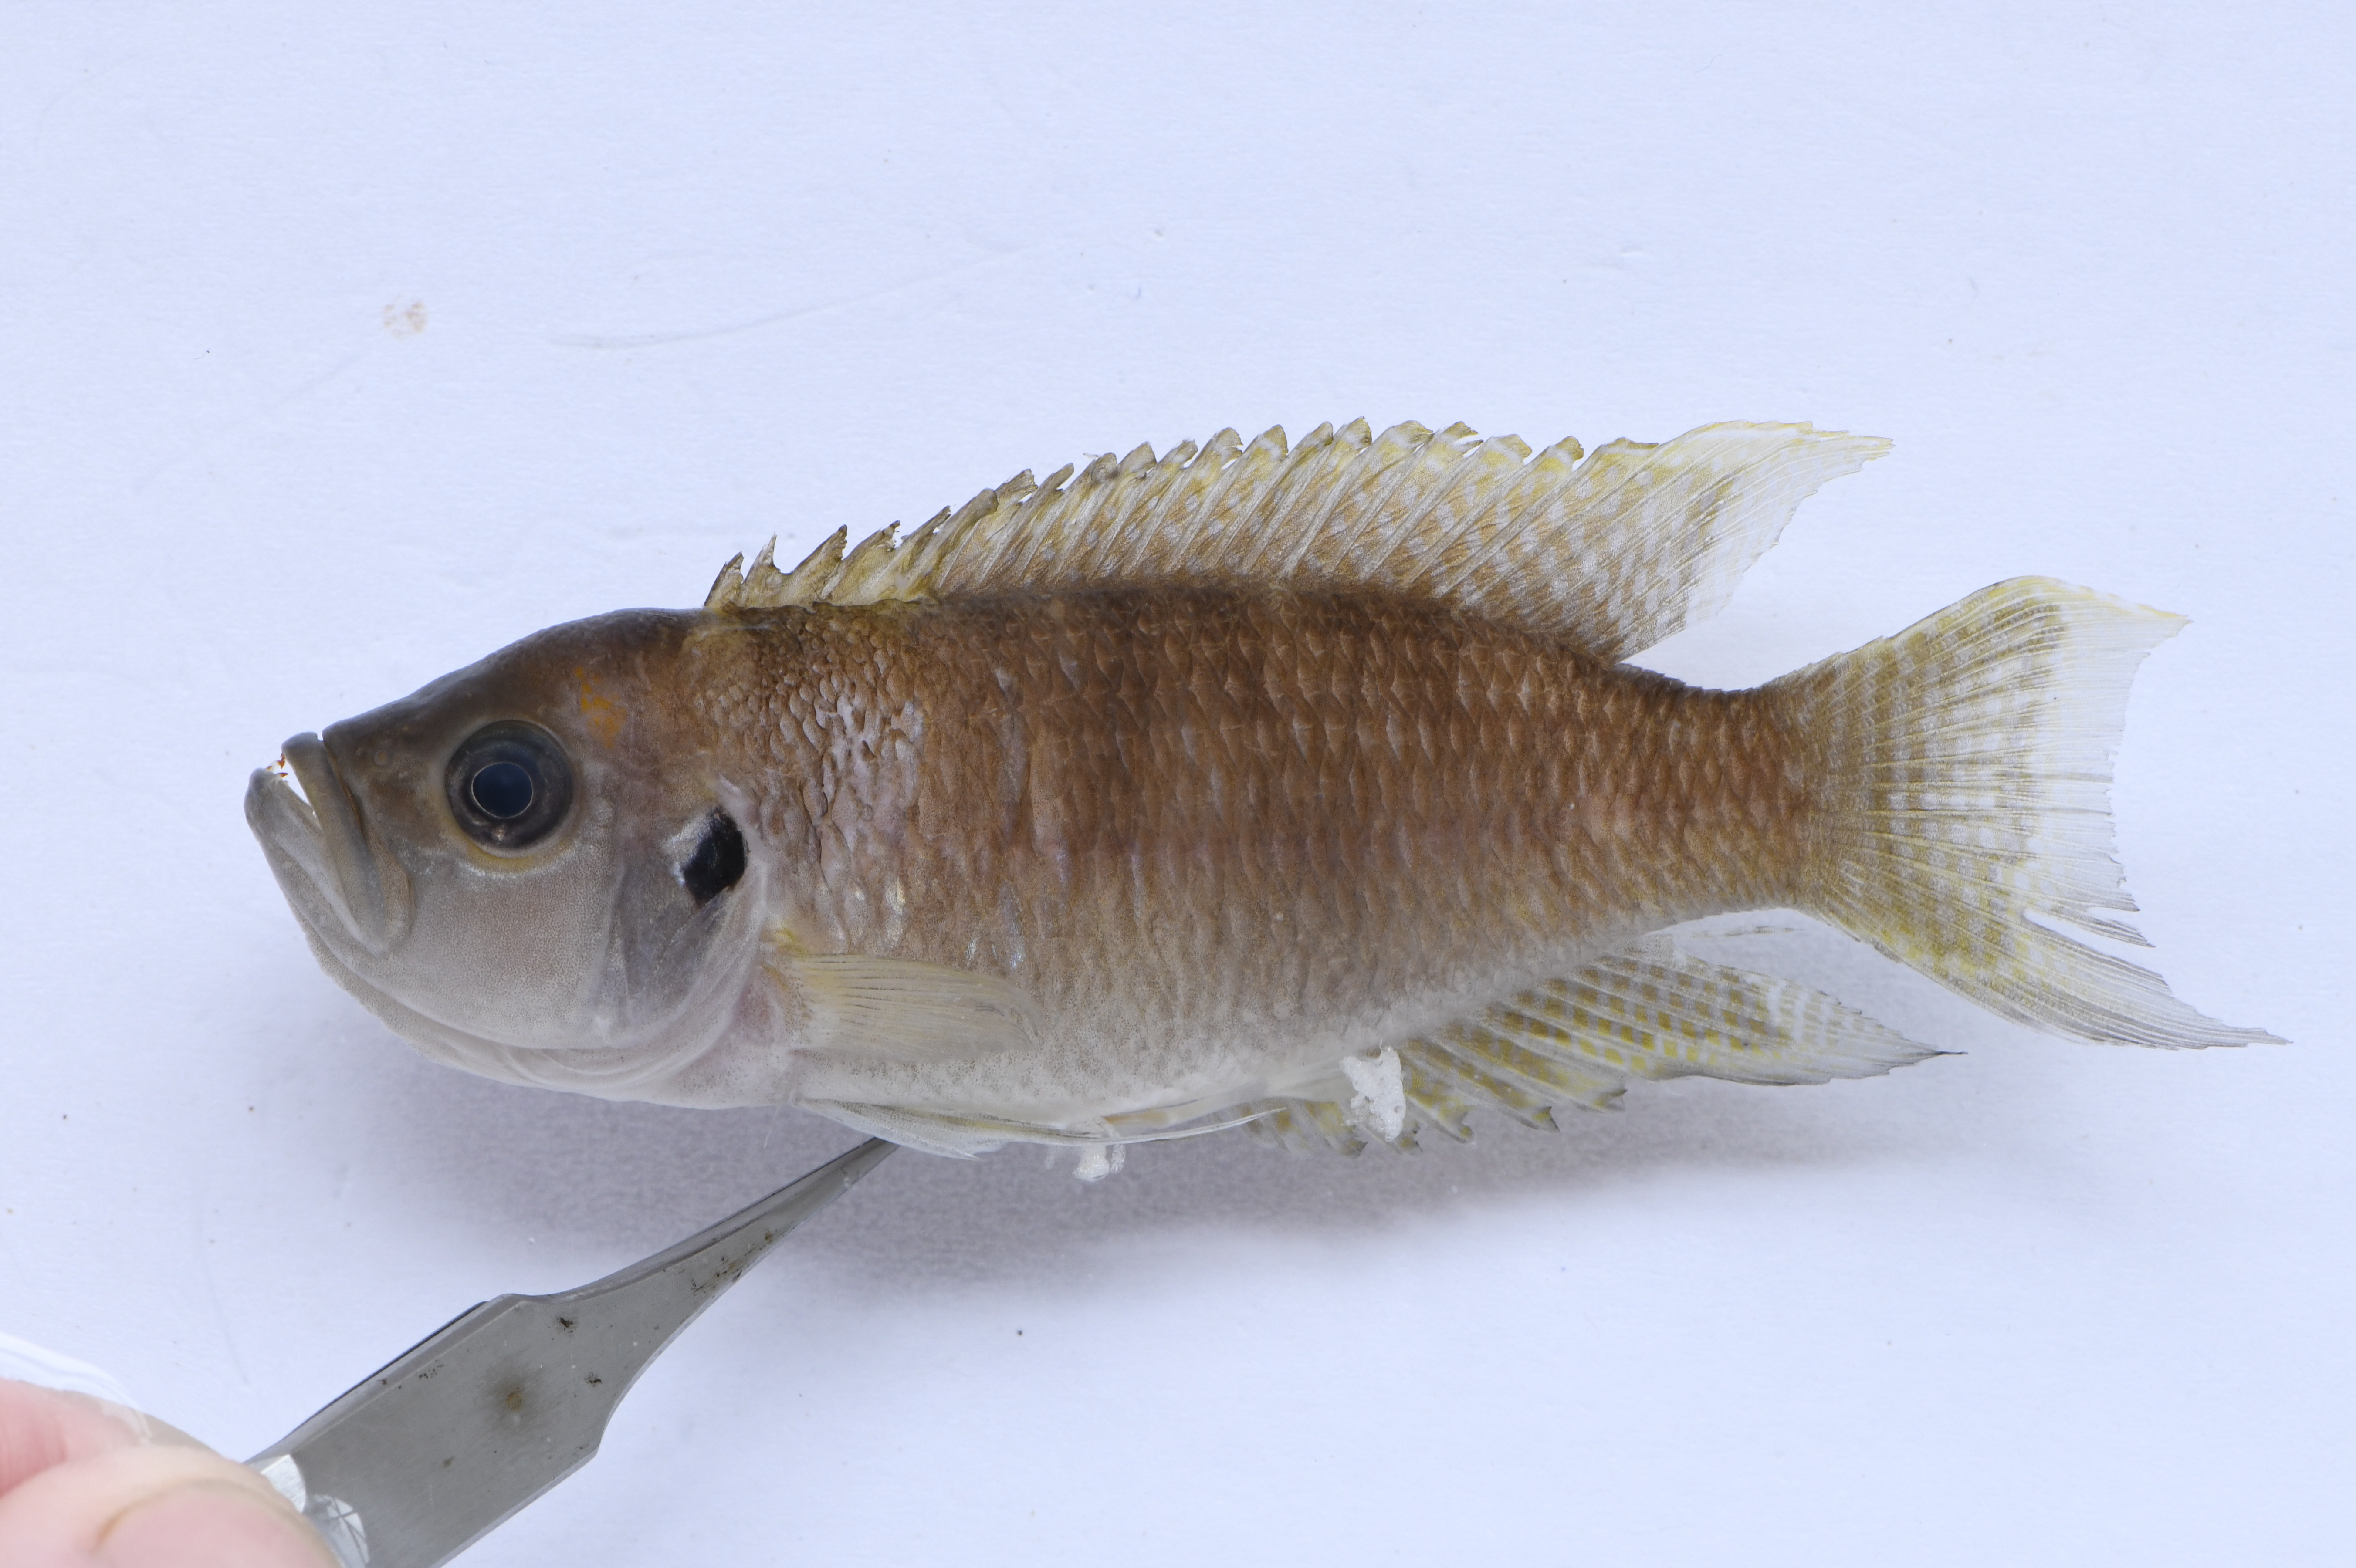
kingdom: Animalia
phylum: Chordata
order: Perciformes
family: Cichlidae
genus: Neolamprologus
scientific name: Neolamprologus brevis
